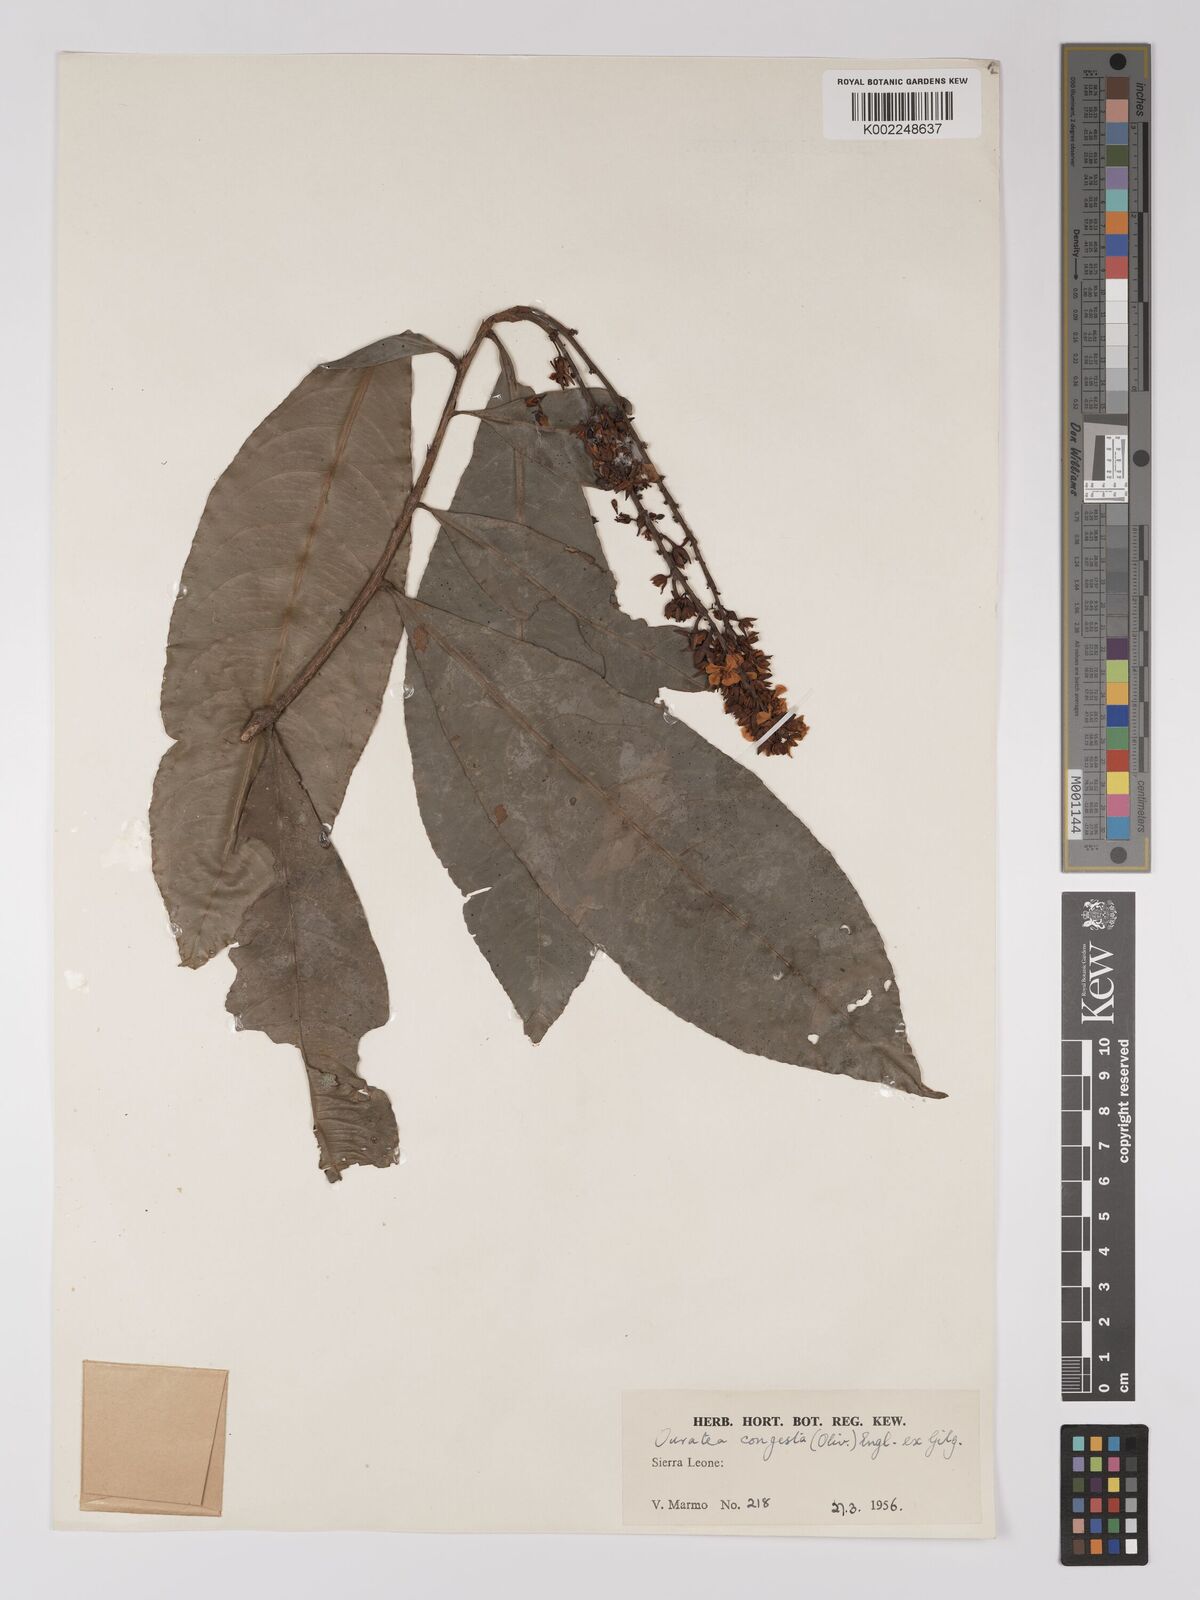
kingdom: Plantae
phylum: Tracheophyta
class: Magnoliopsida
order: Malpighiales
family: Ochnaceae
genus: Campylospermum
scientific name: Campylospermum congestum
